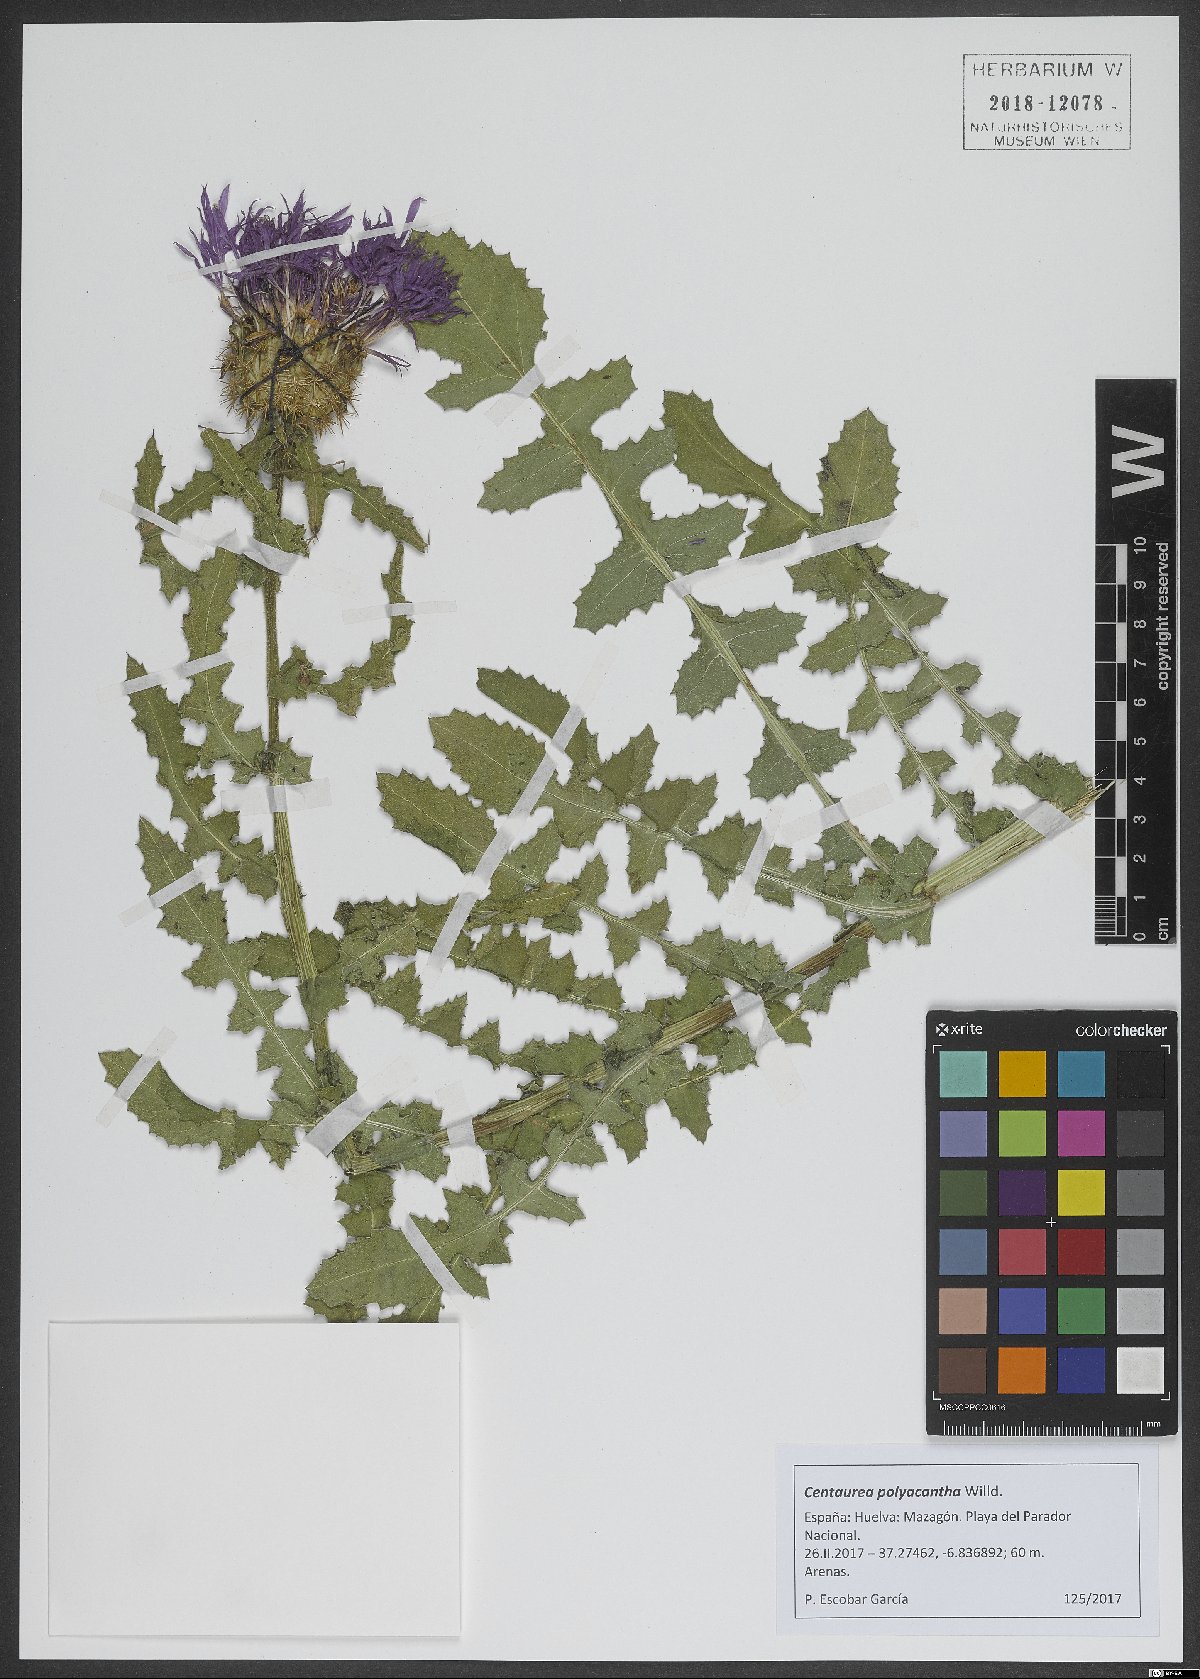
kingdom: Plantae
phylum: Tracheophyta
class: Magnoliopsida
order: Asterales
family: Asteraceae
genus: Centaurea
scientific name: Centaurea polyacantha
